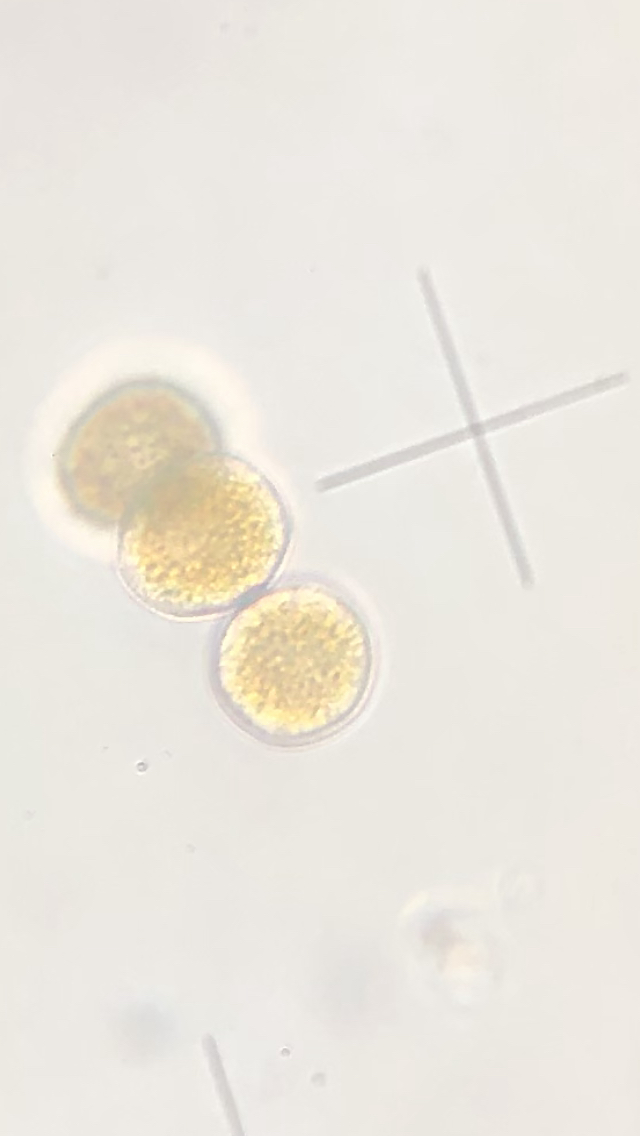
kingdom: Fungi
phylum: Basidiomycota
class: Pucciniomycetes
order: Pucciniales
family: Pucciniaceae
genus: Puccinia
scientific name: Puccinia violae
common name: viol-tvecellerust
